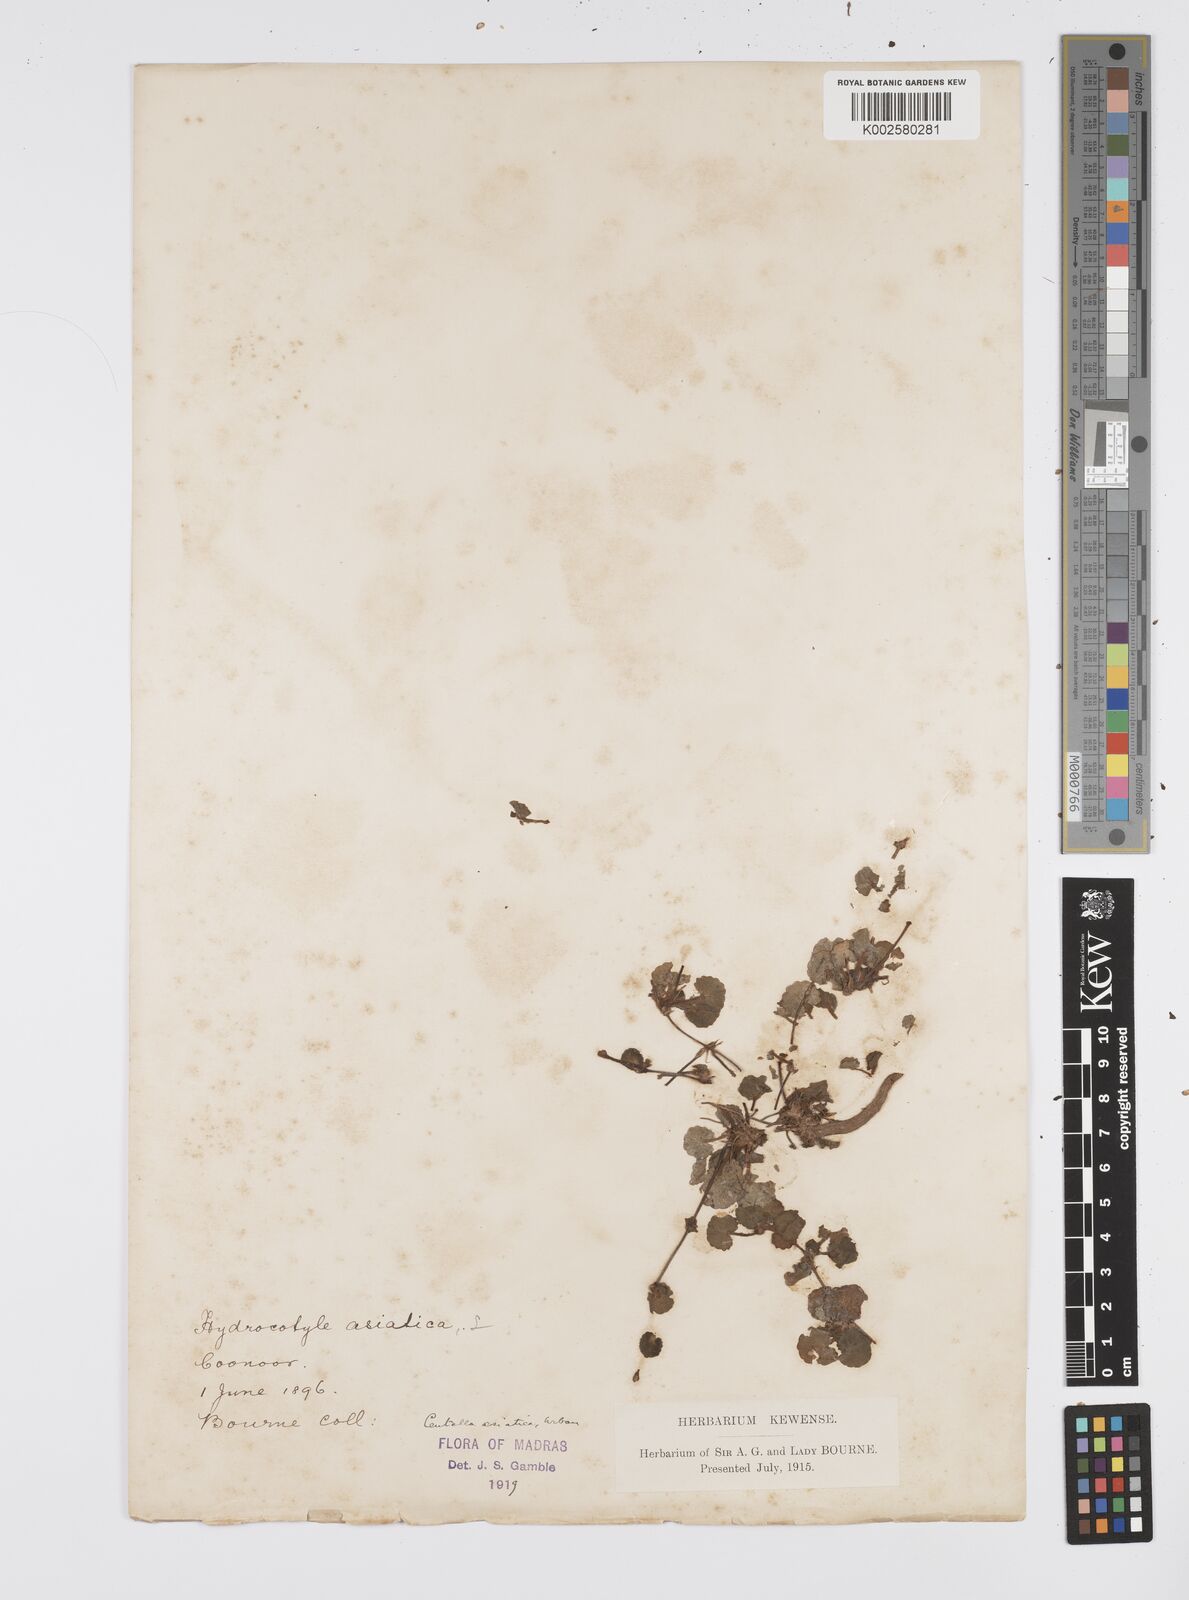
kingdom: Plantae
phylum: Tracheophyta
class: Magnoliopsida
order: Apiales
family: Apiaceae
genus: Centella
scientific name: Centella asiatica
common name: Spadeleaf
